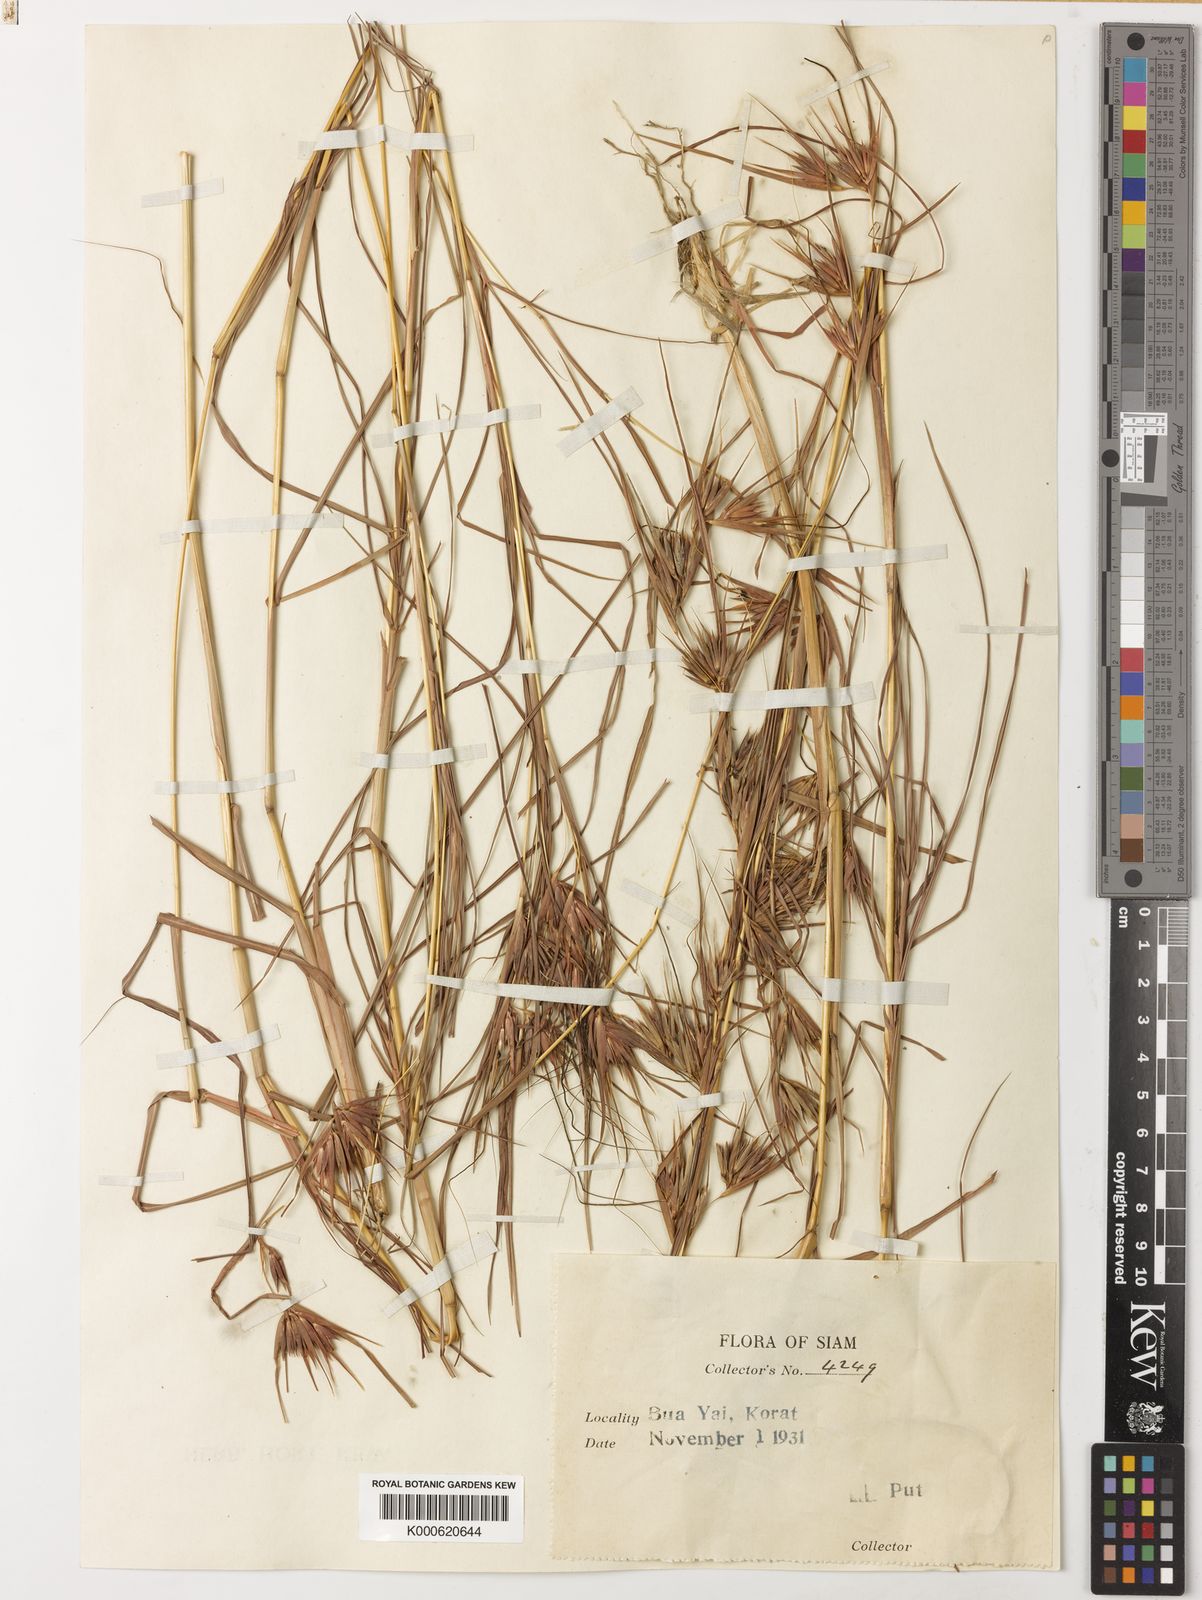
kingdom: Plantae
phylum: Tracheophyta
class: Liliopsida
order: Poales
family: Poaceae
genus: Themeda
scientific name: Themeda triandra
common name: Kangaroo grass
